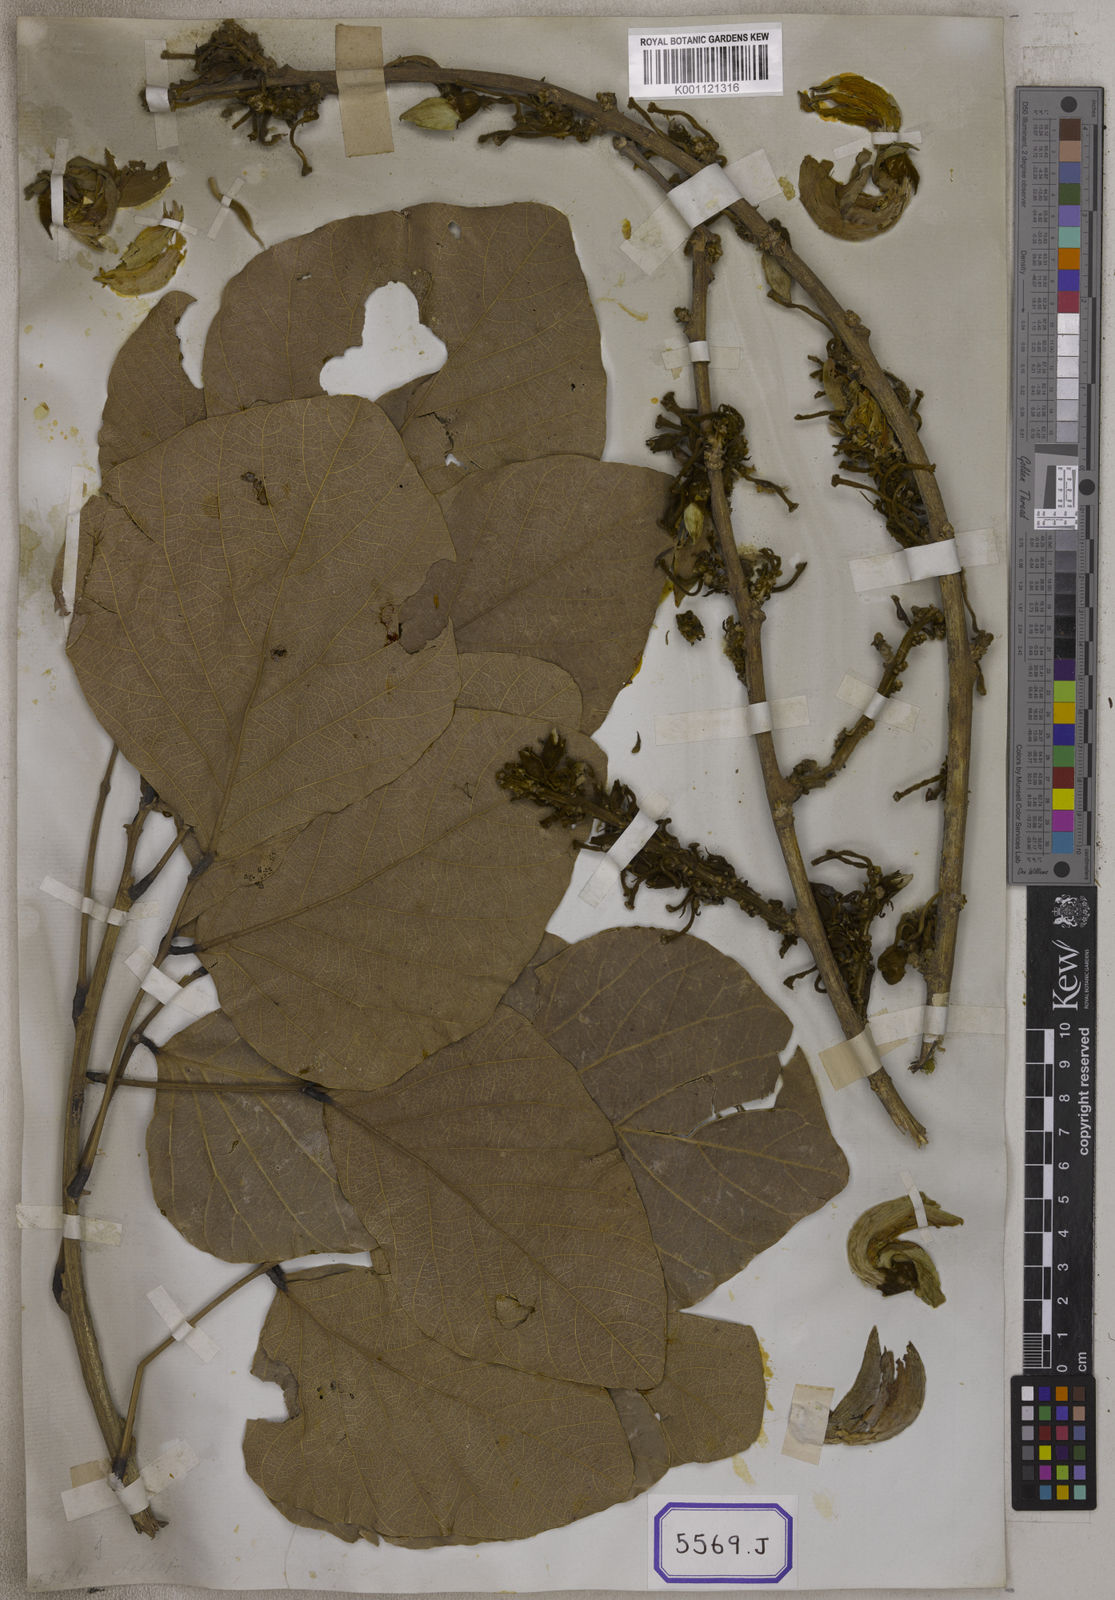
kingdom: Plantae
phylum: Tracheophyta
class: Magnoliopsida
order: Fabales
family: Fabaceae
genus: Butea
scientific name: Butea
